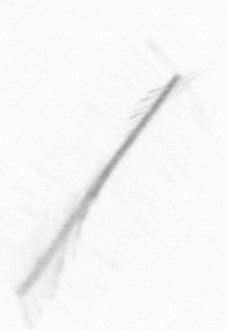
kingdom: Chromista
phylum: Ochrophyta
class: Bacillariophyceae
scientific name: Bacillariophyceae
